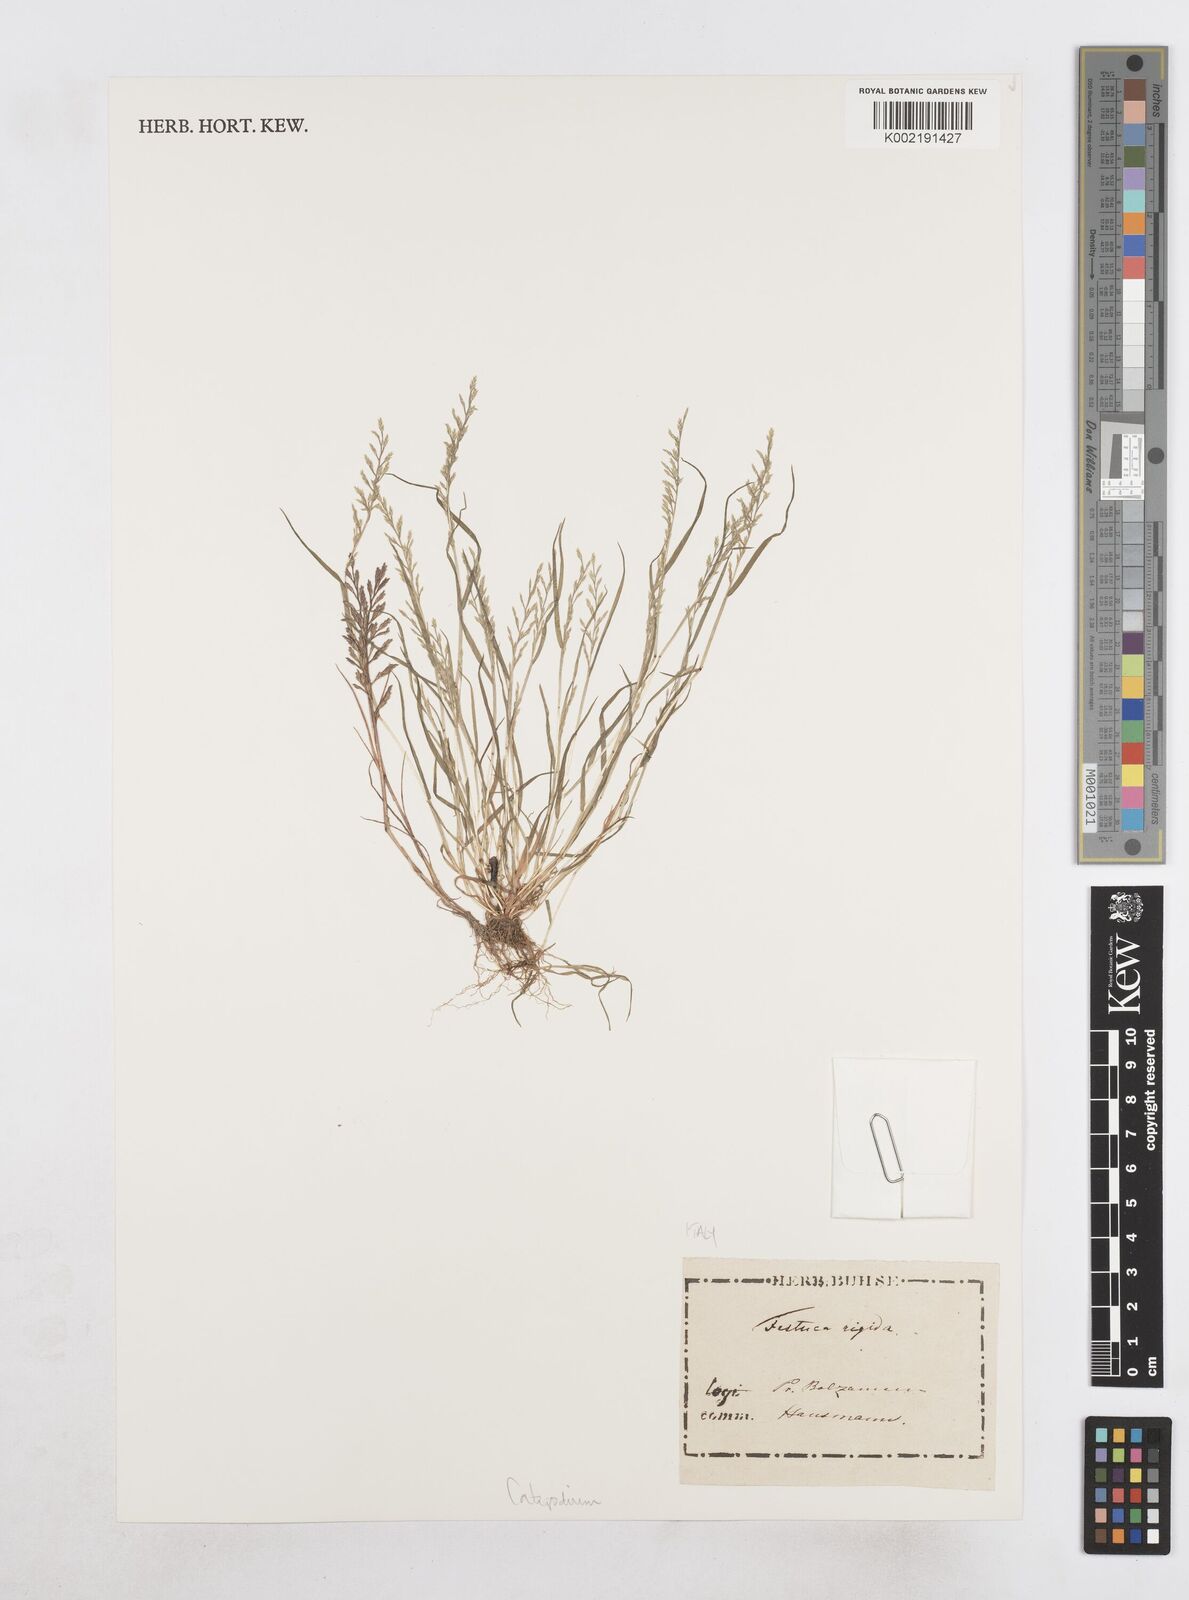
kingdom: Plantae
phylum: Tracheophyta
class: Liliopsida
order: Poales
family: Poaceae
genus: Catapodium
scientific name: Catapodium rigidum
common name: Fern-grass
